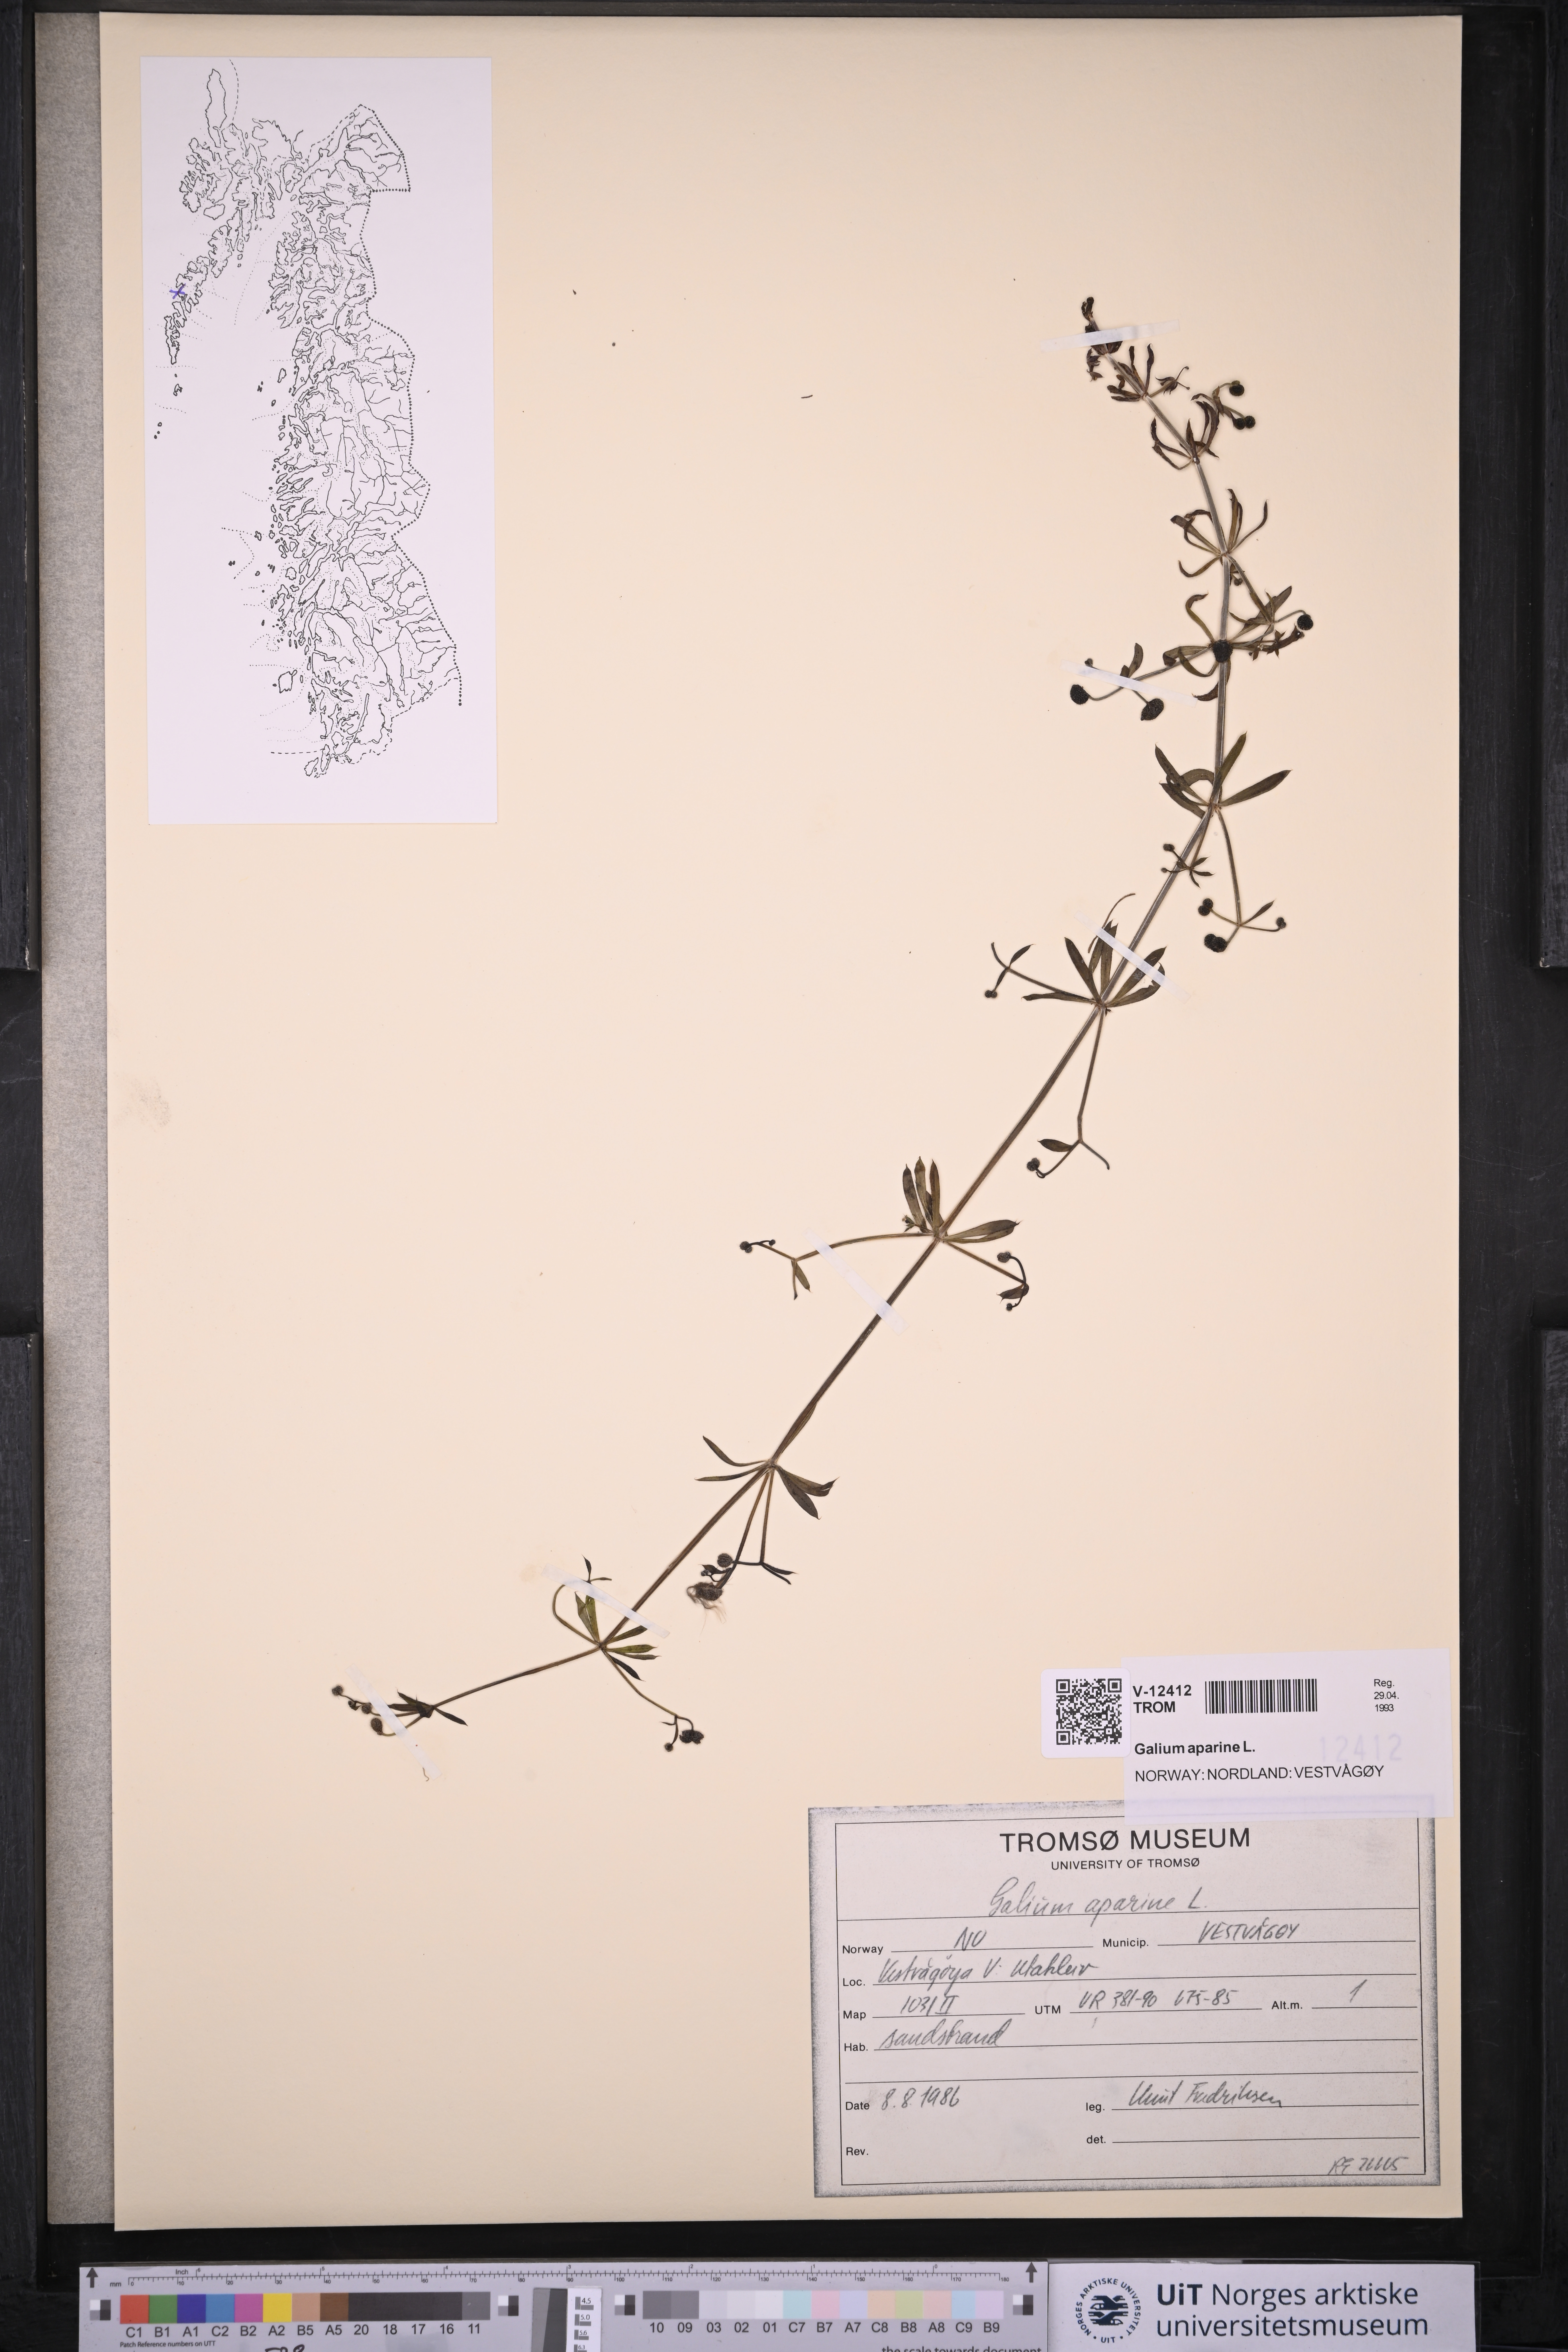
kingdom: Plantae
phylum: Tracheophyta
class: Magnoliopsida
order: Gentianales
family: Rubiaceae
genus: Galium
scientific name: Galium aparine
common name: Cleavers
